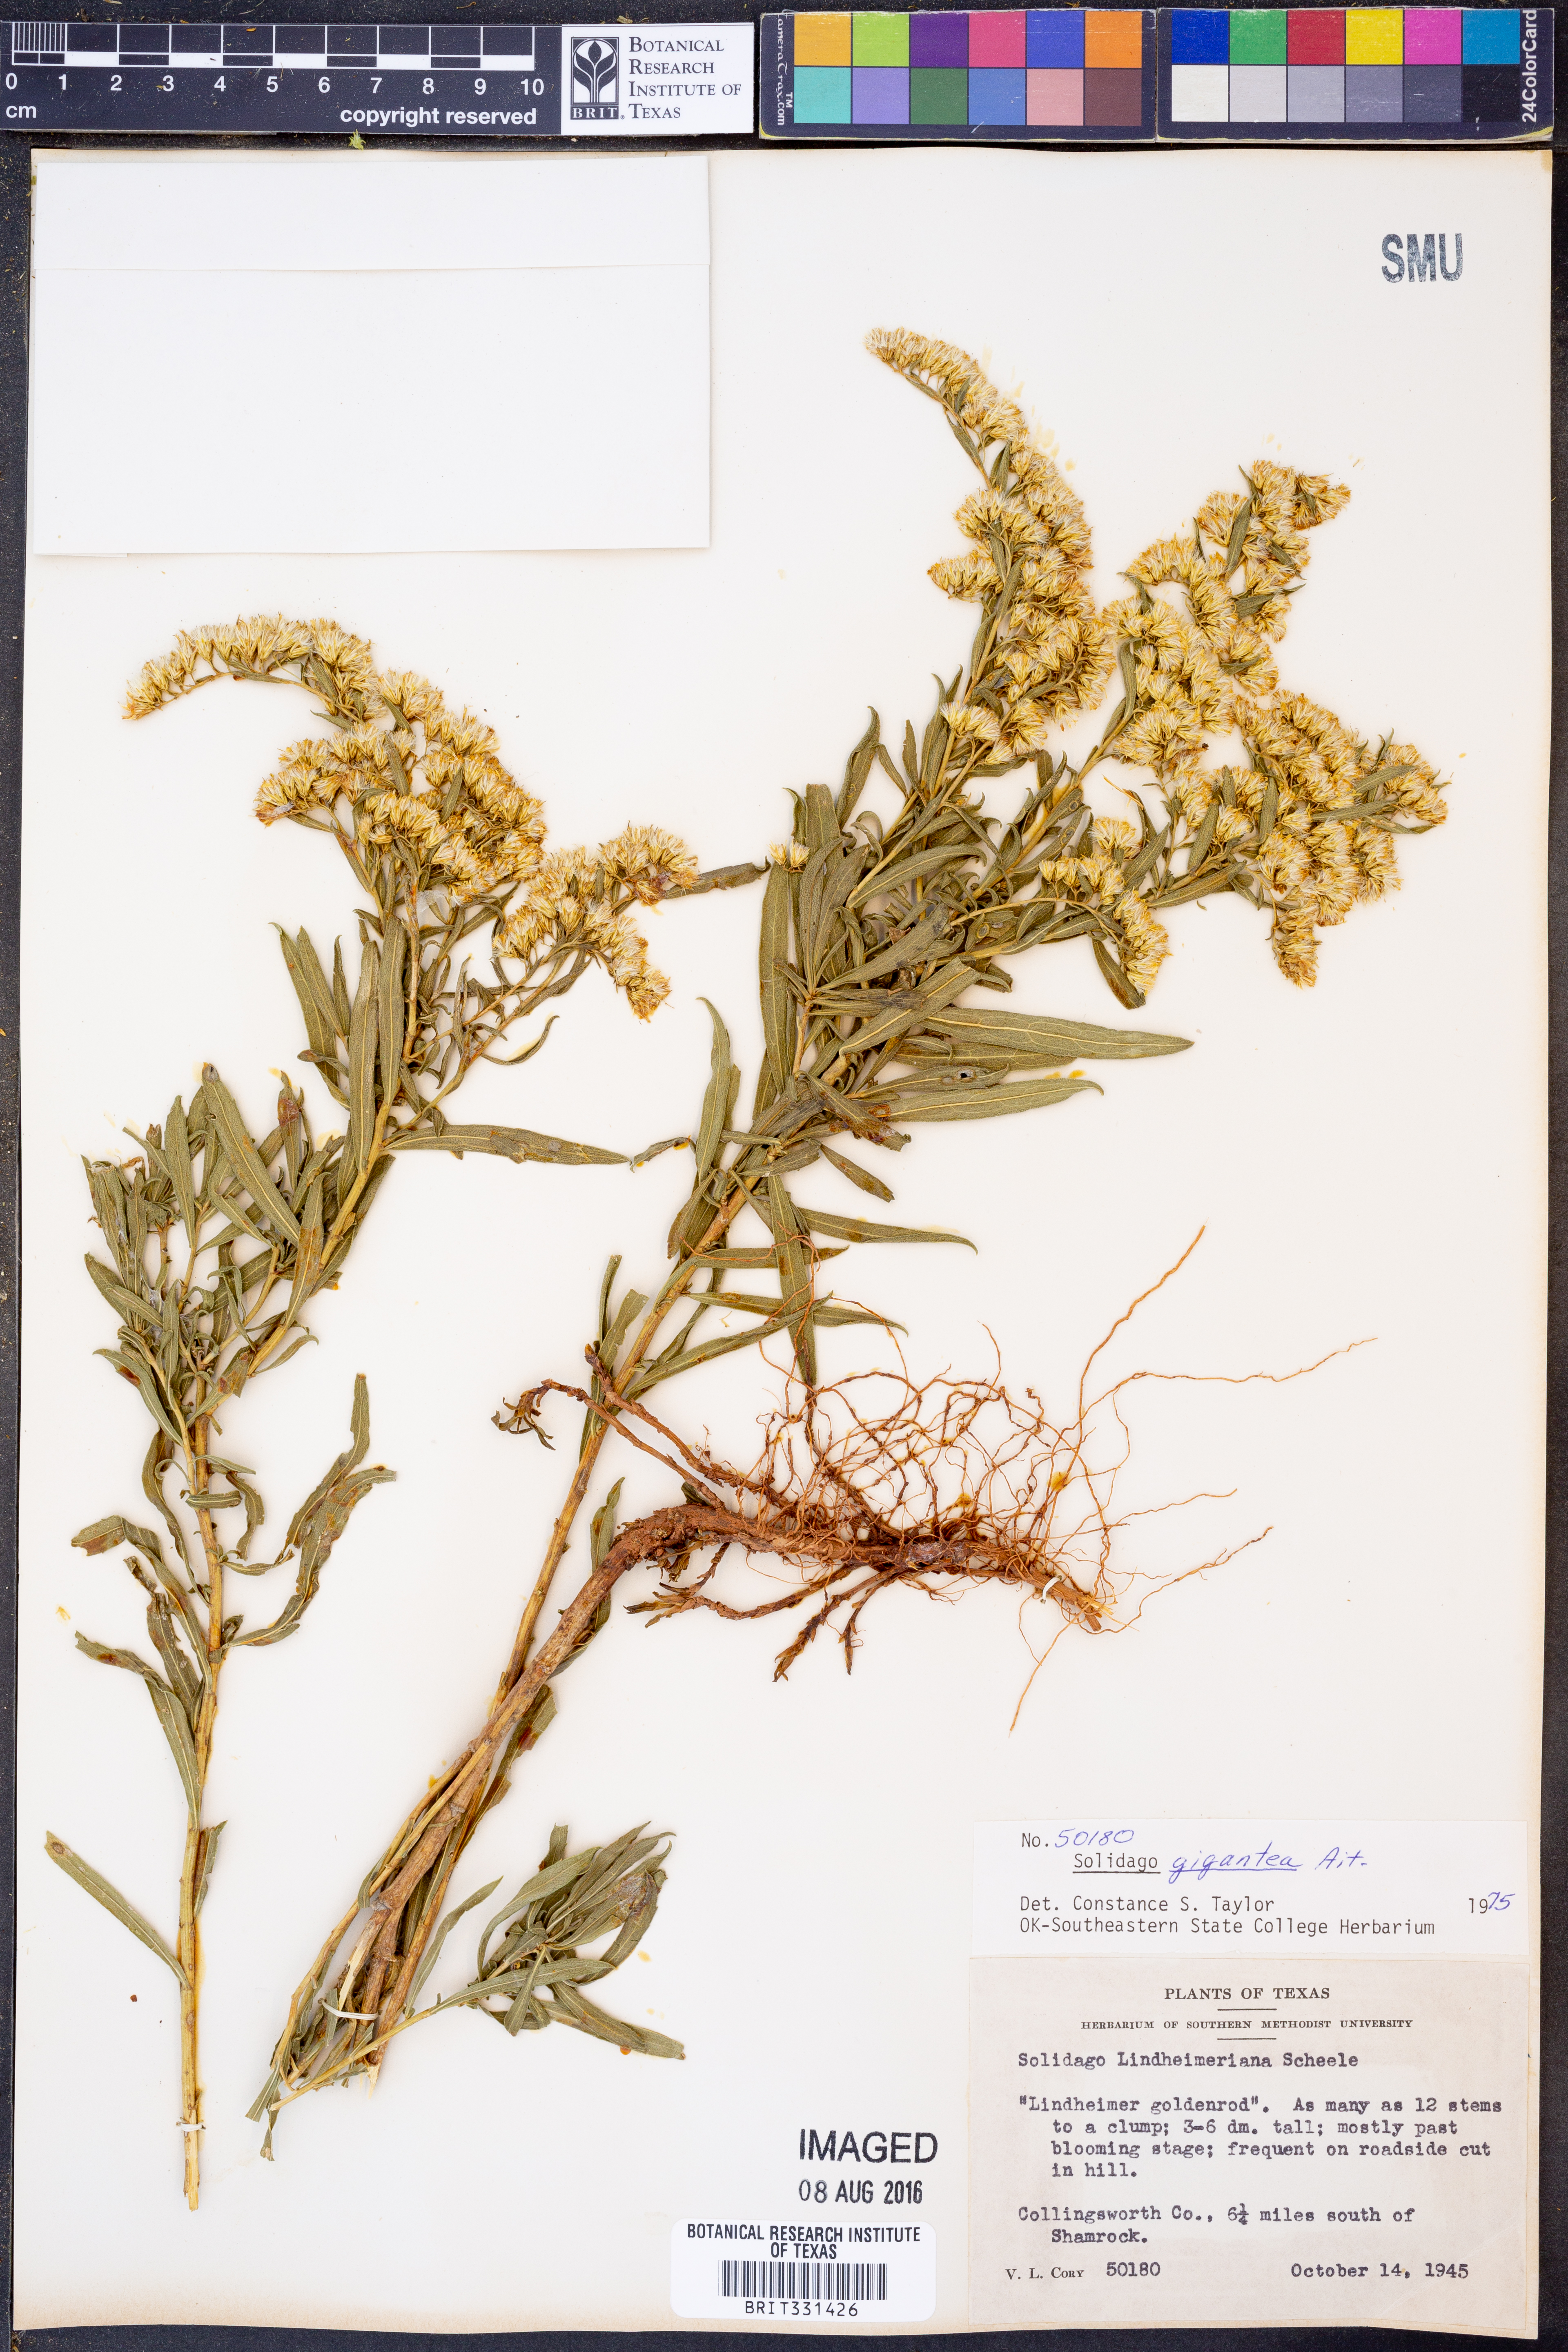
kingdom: Plantae
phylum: Tracheophyta
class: Magnoliopsida
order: Asterales
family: Asteraceae
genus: Solidago
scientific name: Solidago gigantea
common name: Giant goldenrod
